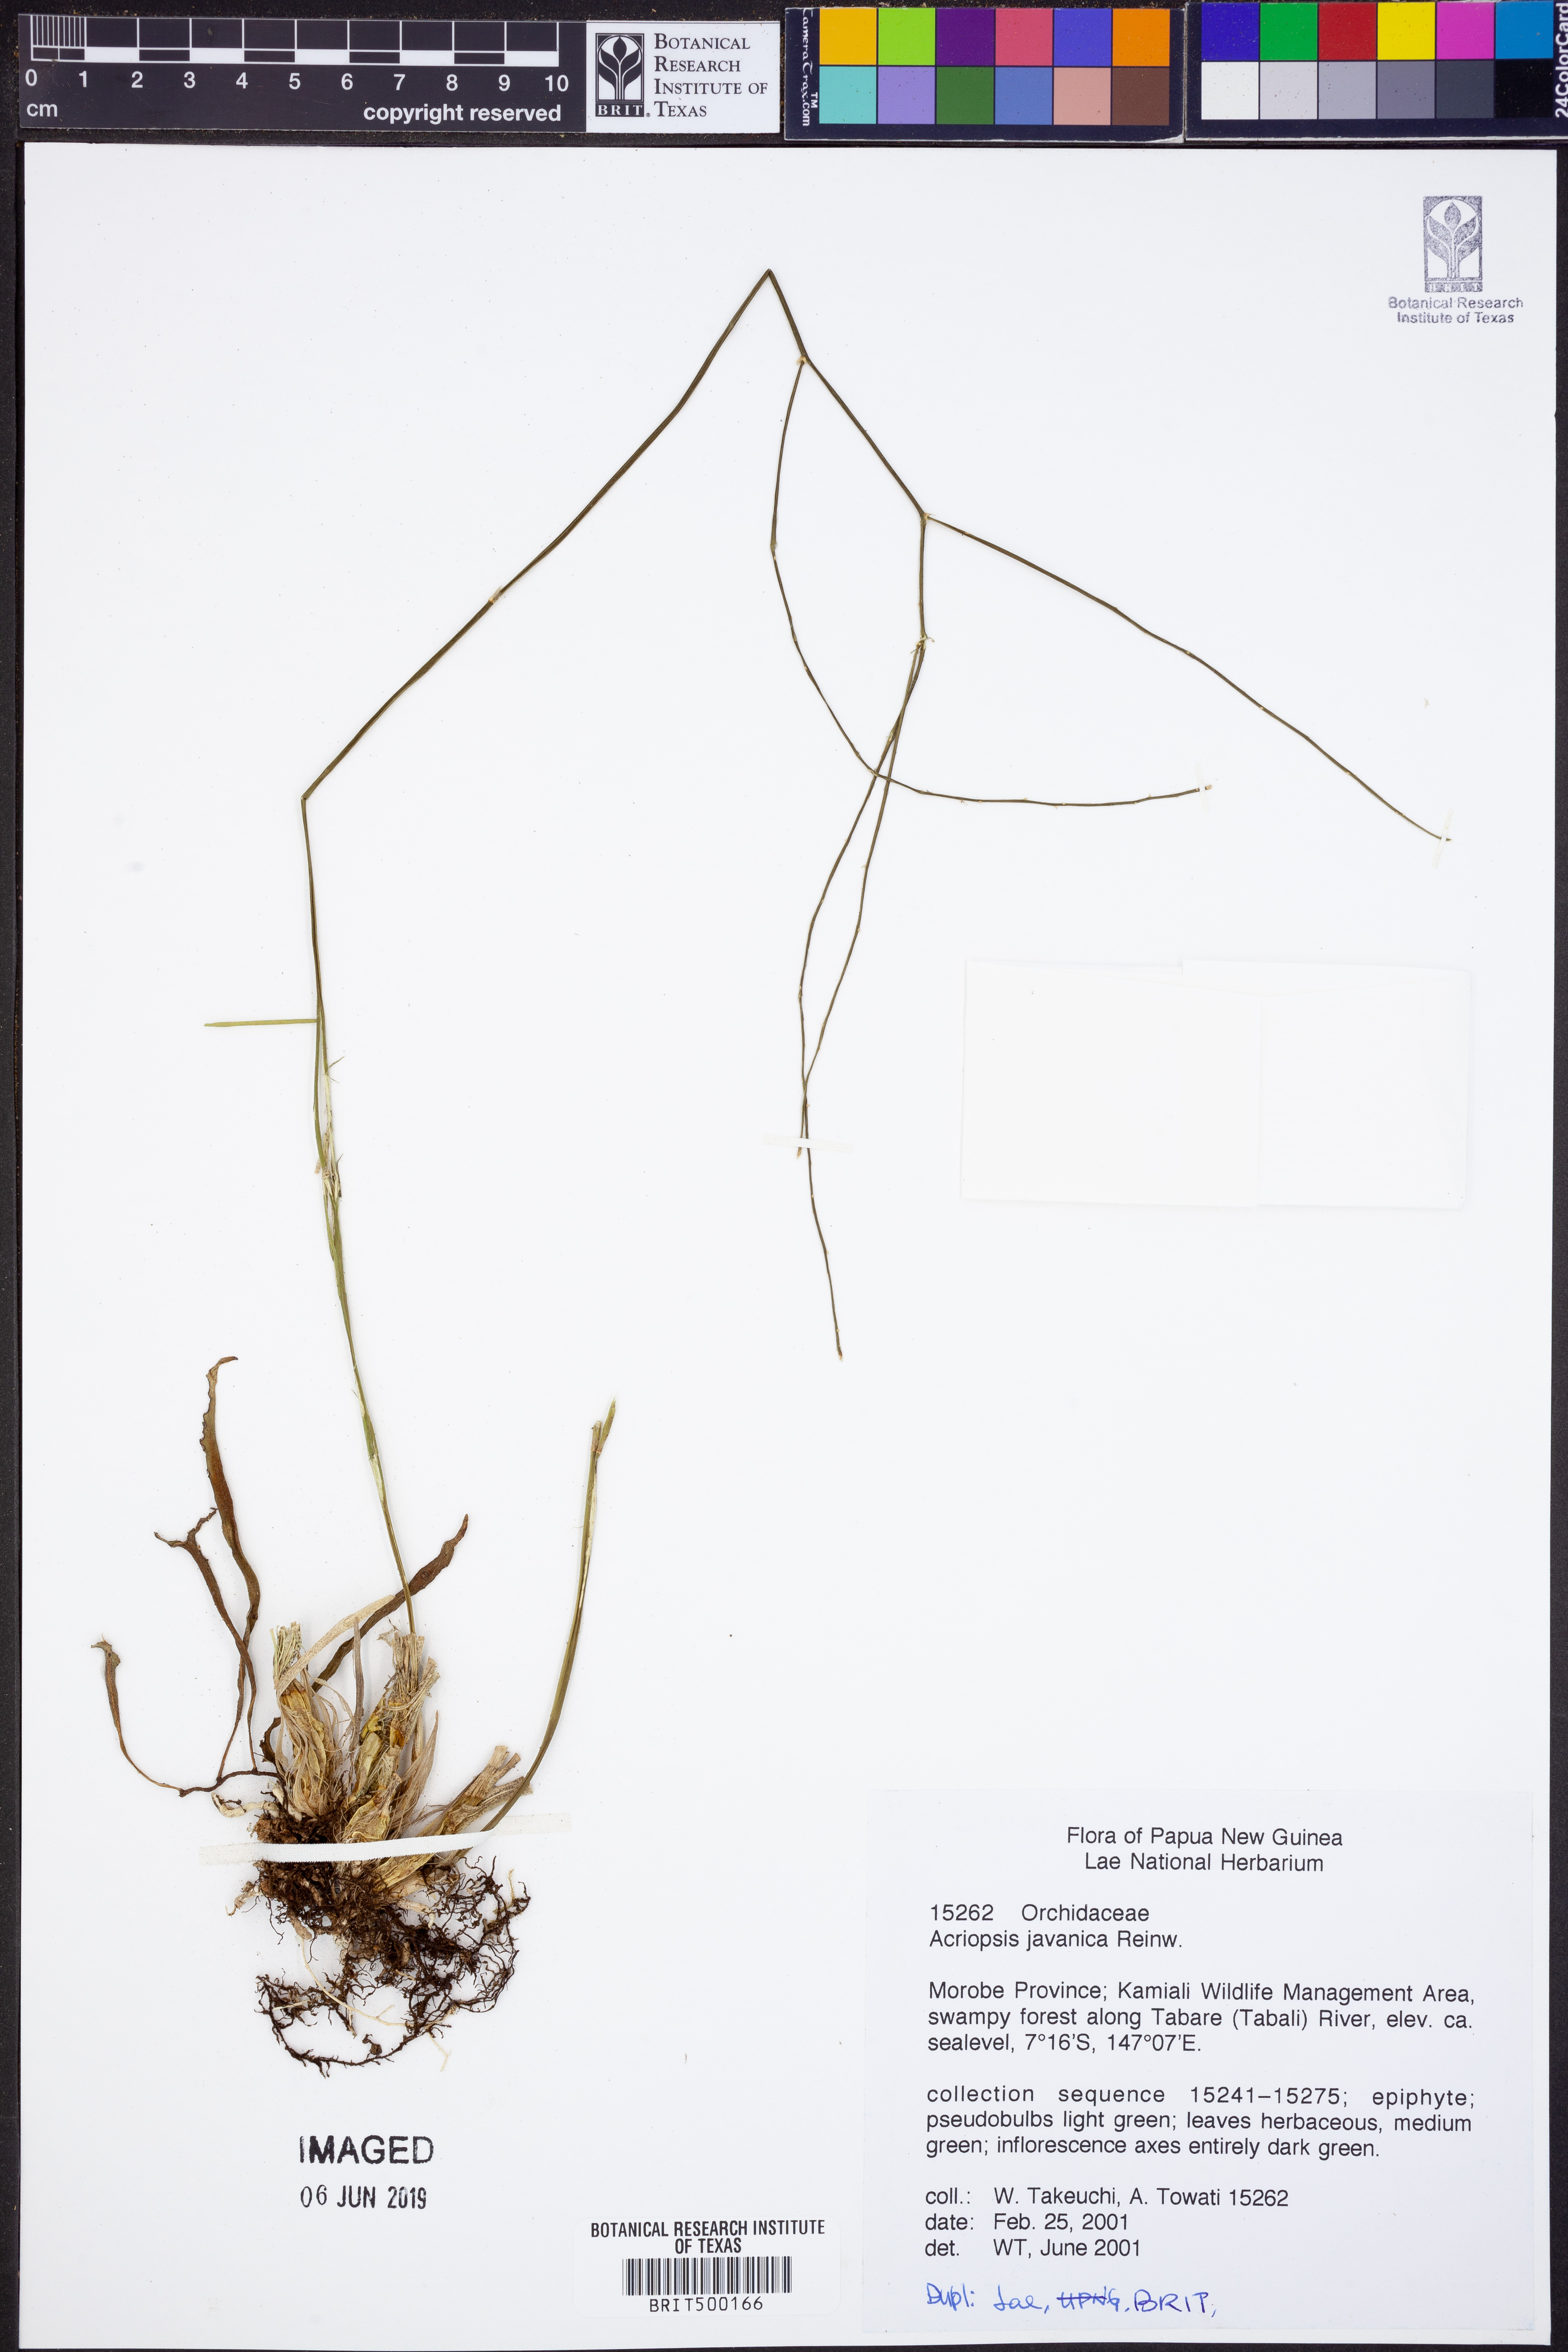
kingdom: Plantae
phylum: Tracheophyta
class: Liliopsida
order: Asparagales
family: Orchidaceae
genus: Acriopsis
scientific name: Acriopsis liliifolia
